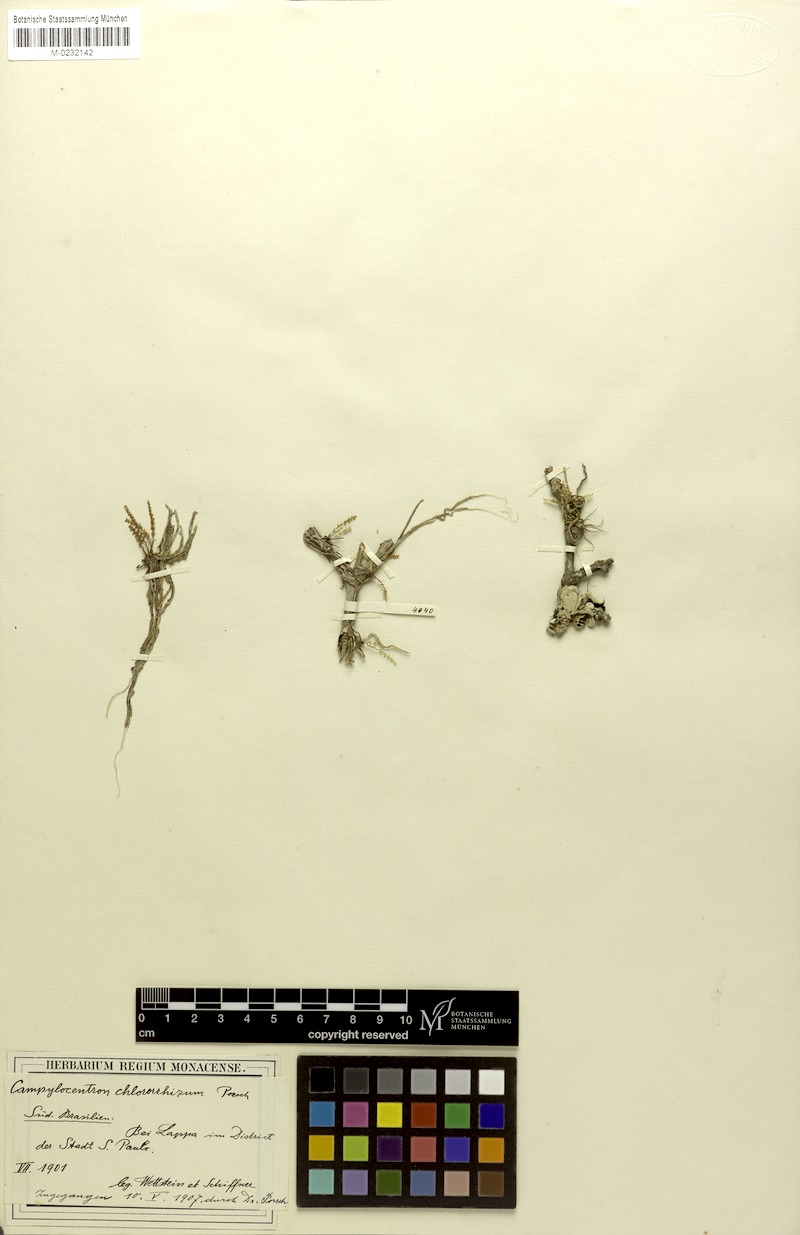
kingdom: Plantae
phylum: Tracheophyta
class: Liliopsida
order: Asparagales
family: Orchidaceae
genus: Campylocentrum
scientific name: Campylocentrum grisebachii
